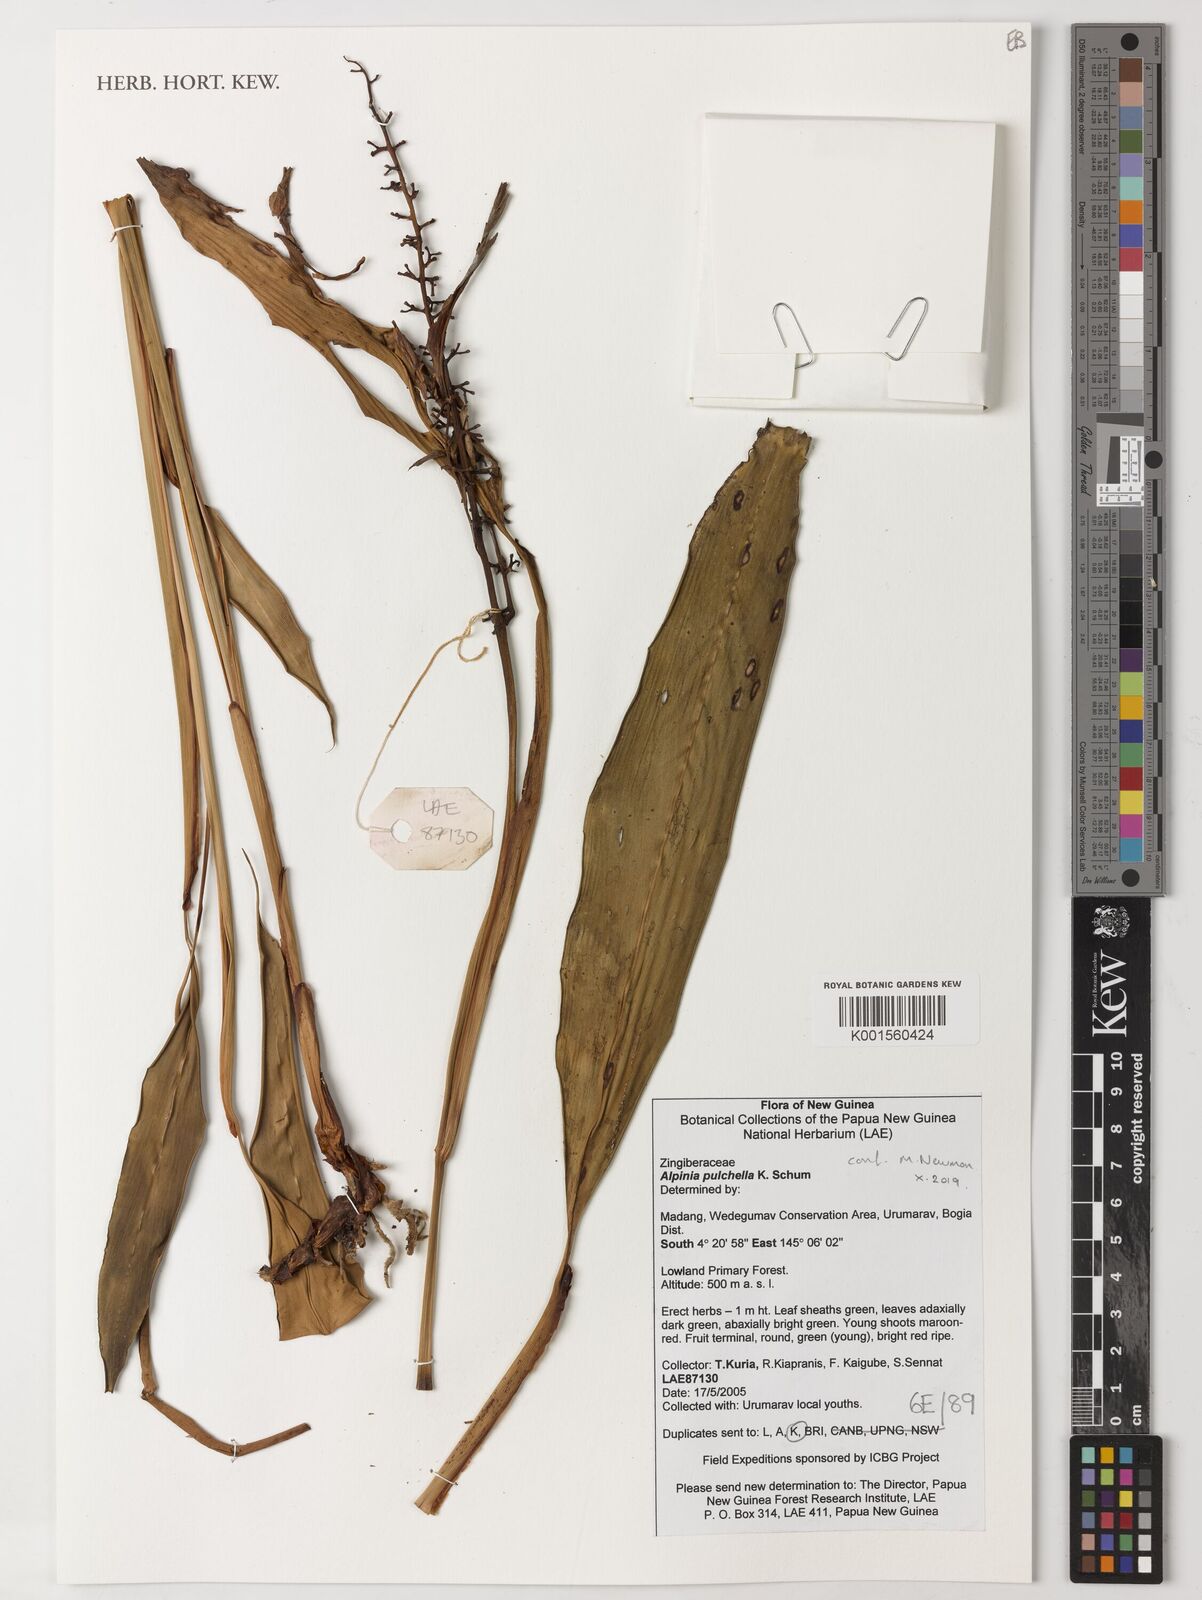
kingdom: Plantae
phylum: Tracheophyta
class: Liliopsida
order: Zingiberales
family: Zingiberaceae
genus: Alpinia
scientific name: Alpinia pulchella
